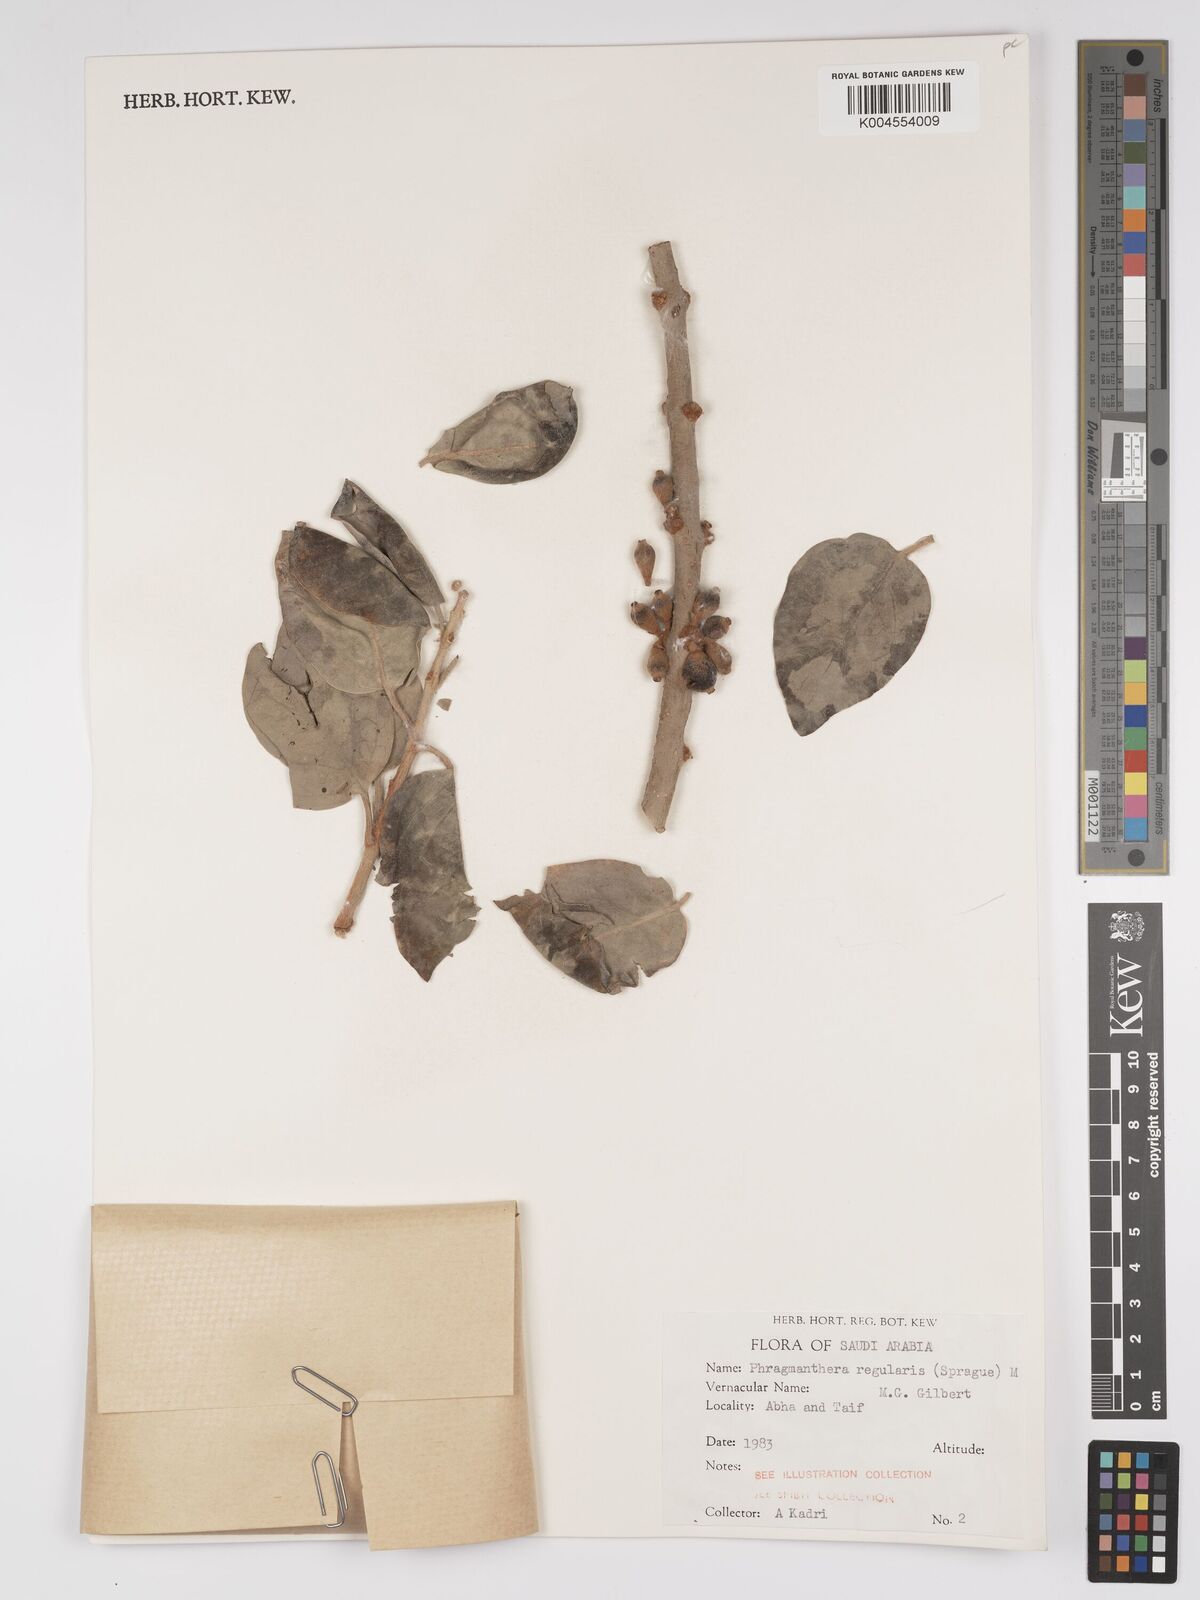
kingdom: Plantae
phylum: Tracheophyta
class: Magnoliopsida
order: Santalales
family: Loranthaceae
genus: Phragmanthera
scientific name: Phragmanthera regularis
